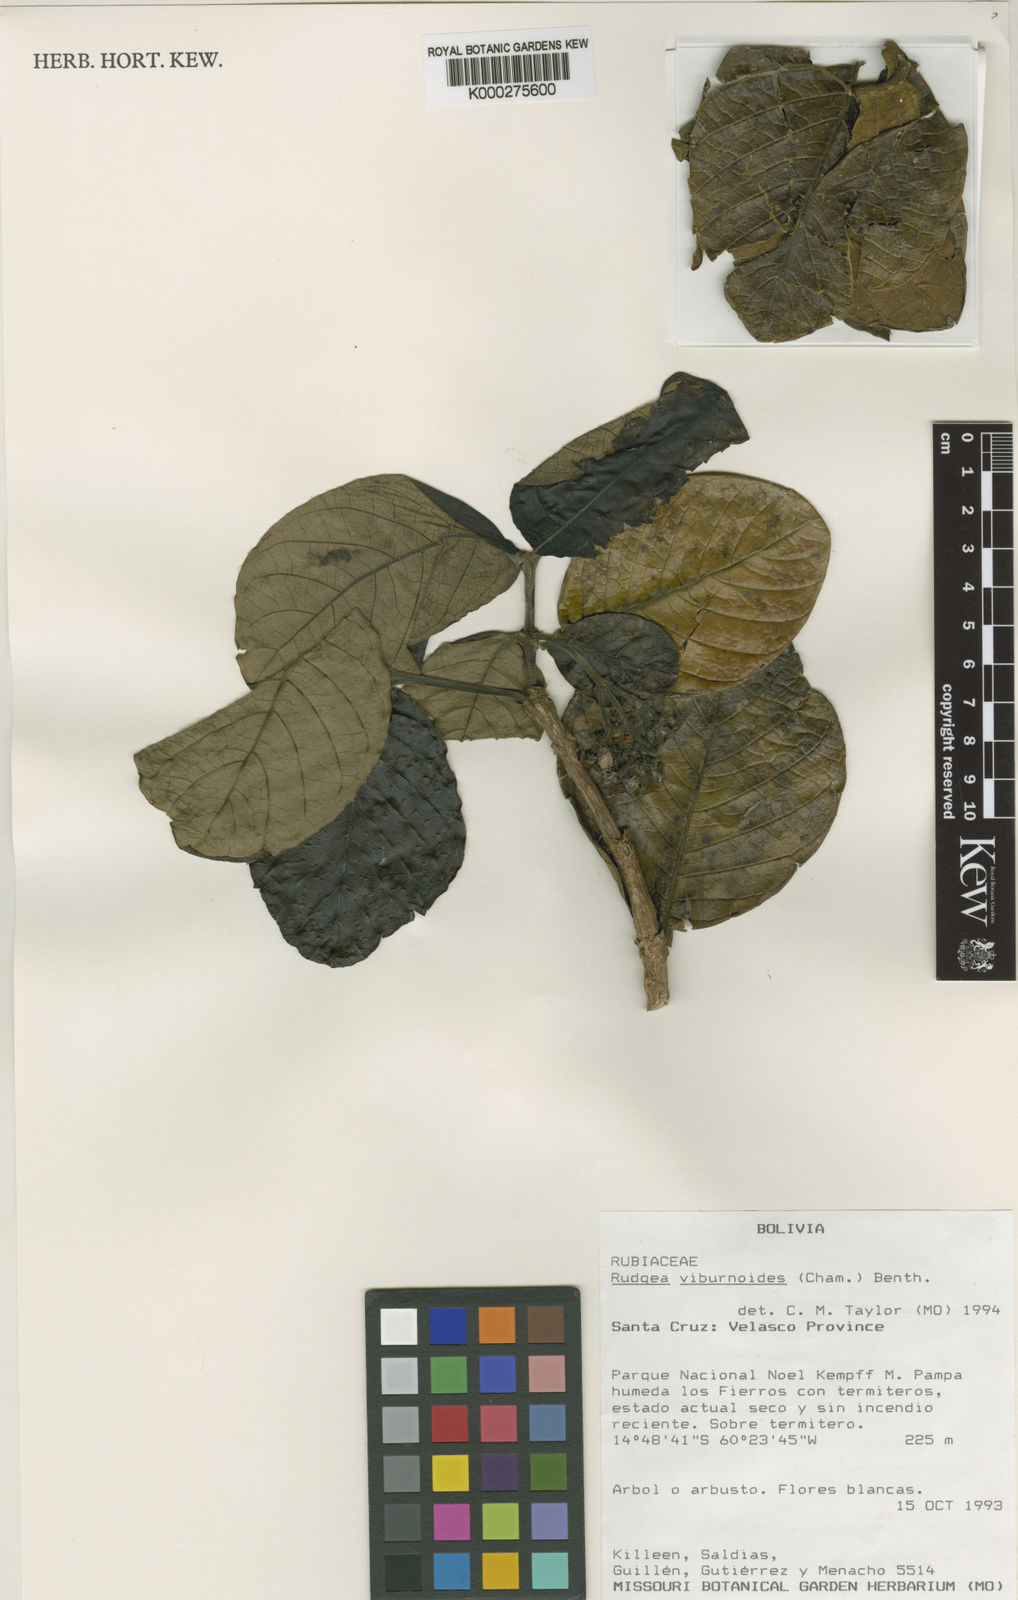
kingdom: Plantae
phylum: Tracheophyta
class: Magnoliopsida
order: Gentianales
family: Rubiaceae
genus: Rudgea
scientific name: Rudgea viburnoides
